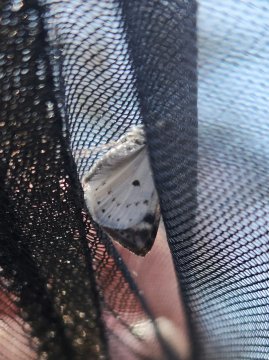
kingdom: Animalia
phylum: Arthropoda
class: Insecta
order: Lepidoptera
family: Pieridae
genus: Pieris
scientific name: Pieris rapae
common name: Cabbage White
